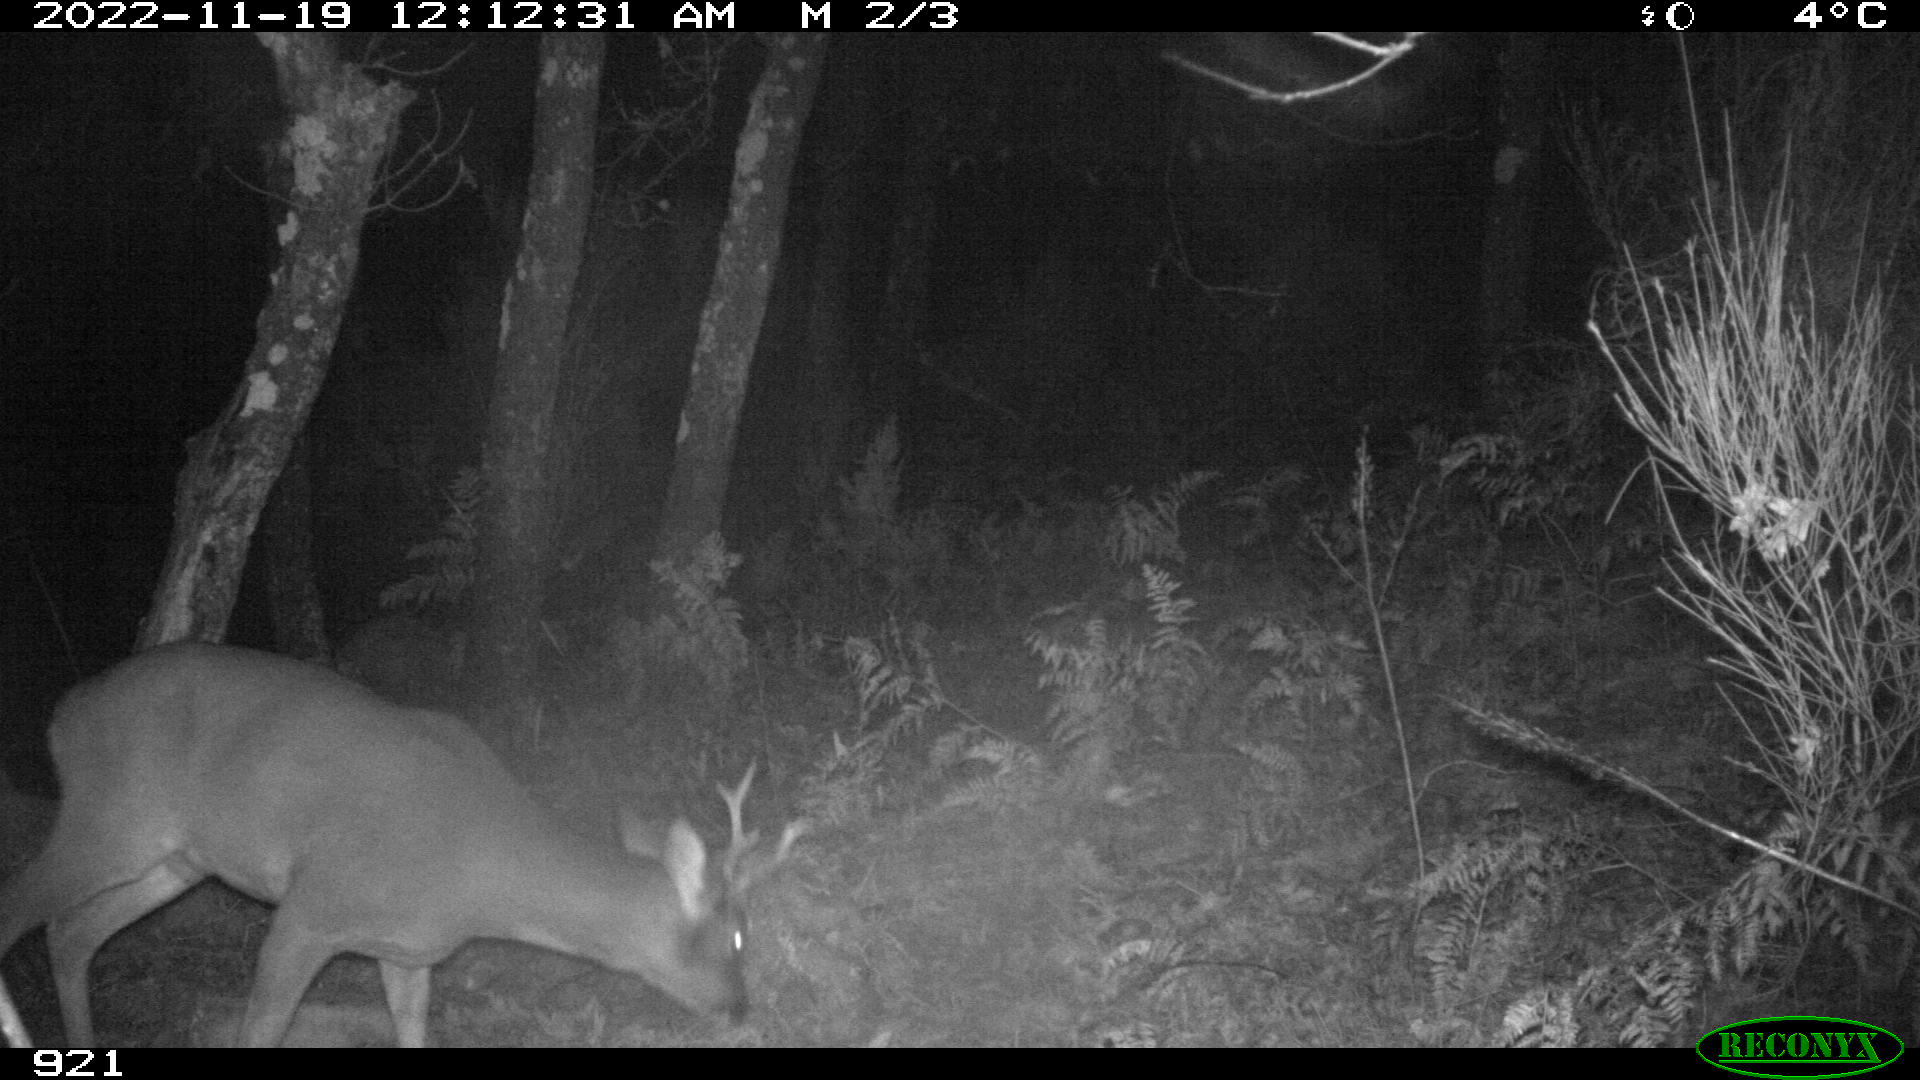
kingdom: Animalia
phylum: Chordata
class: Mammalia
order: Artiodactyla
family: Cervidae
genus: Capreolus
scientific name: Capreolus capreolus
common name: Western roe deer
